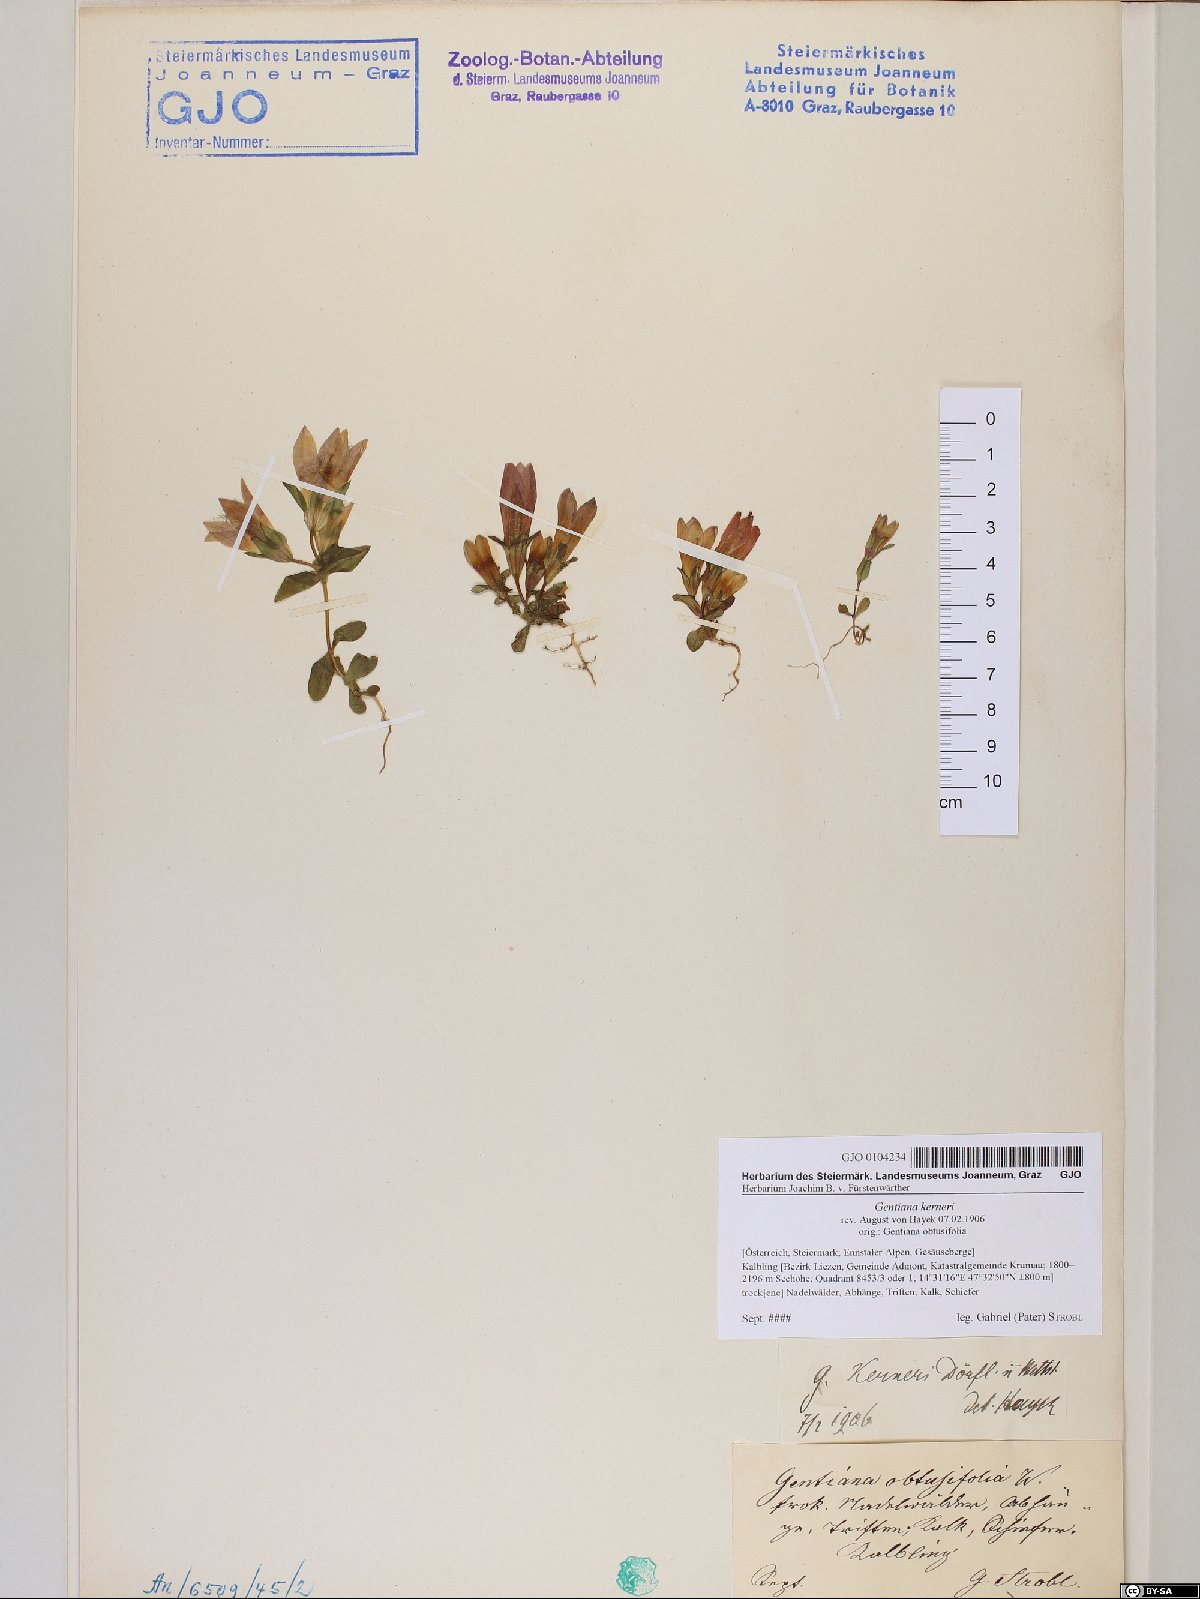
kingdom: Plantae
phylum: Tracheophyta
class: Magnoliopsida
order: Gentianales
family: Gentianaceae
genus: Gentianella
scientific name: Gentianella rhaetica
